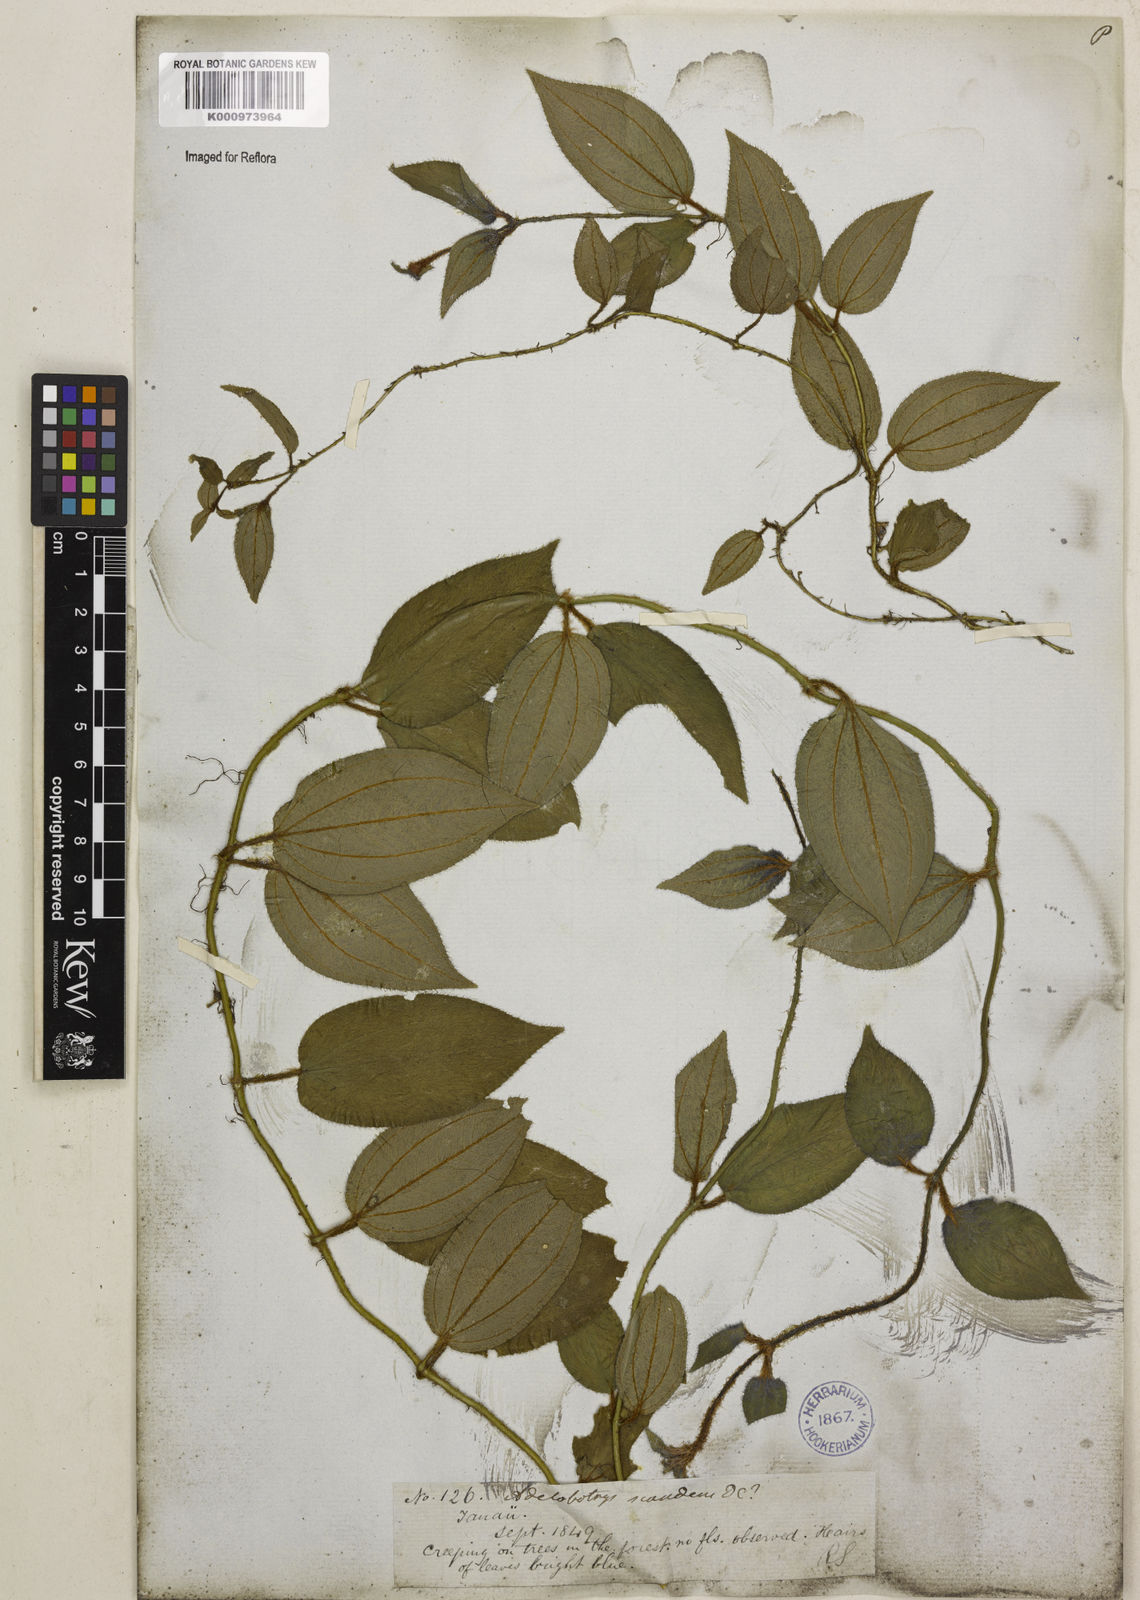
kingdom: Plantae
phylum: Tracheophyta
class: Magnoliopsida
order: Myrtales
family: Melastomataceae
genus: Adelobotrys
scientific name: Adelobotrys scandens
